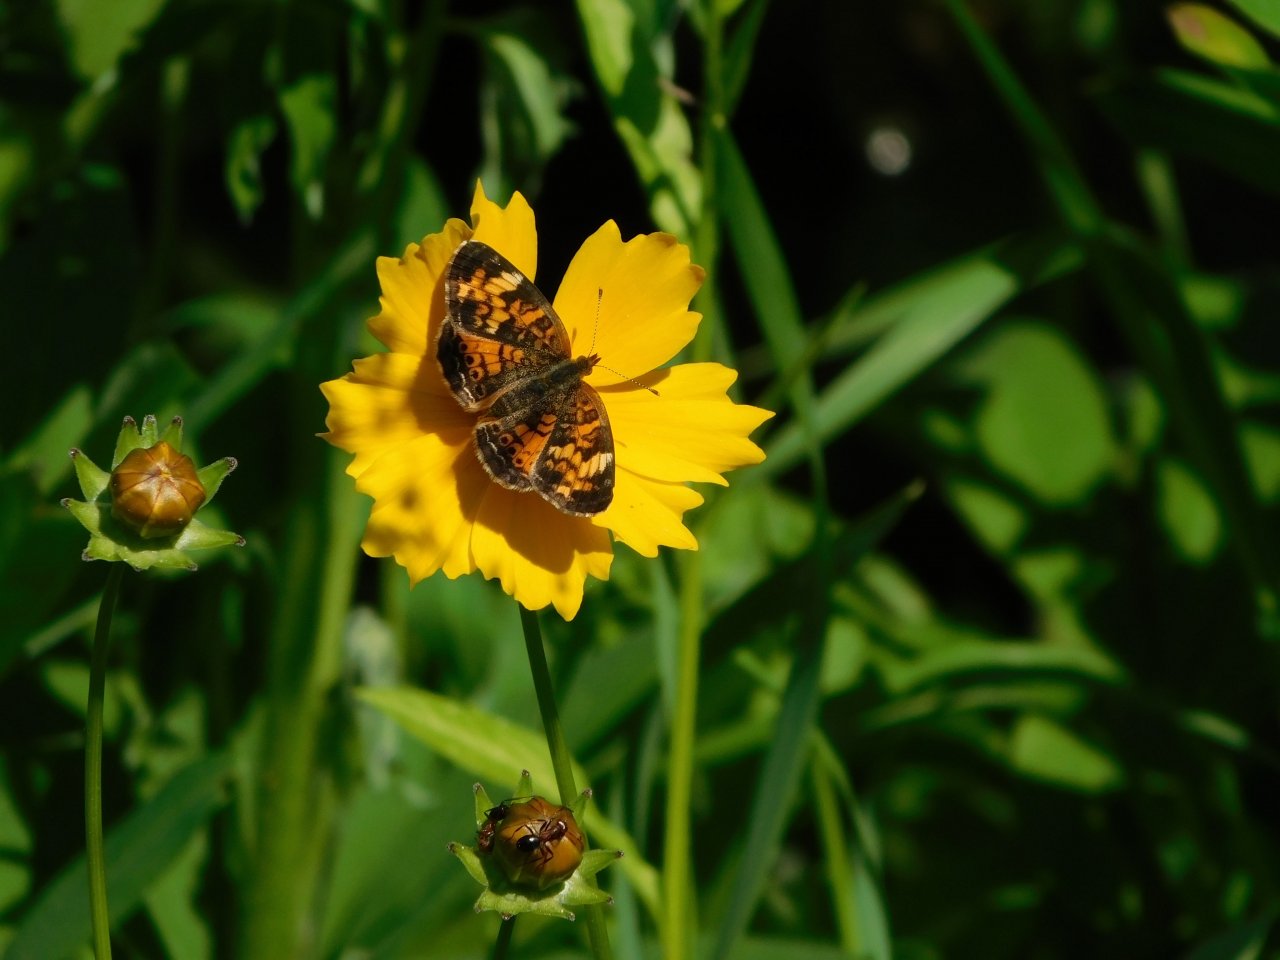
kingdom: Animalia
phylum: Arthropoda
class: Insecta
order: Lepidoptera
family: Nymphalidae
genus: Phyciodes
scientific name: Phyciodes tharos
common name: Pearl Crescent
